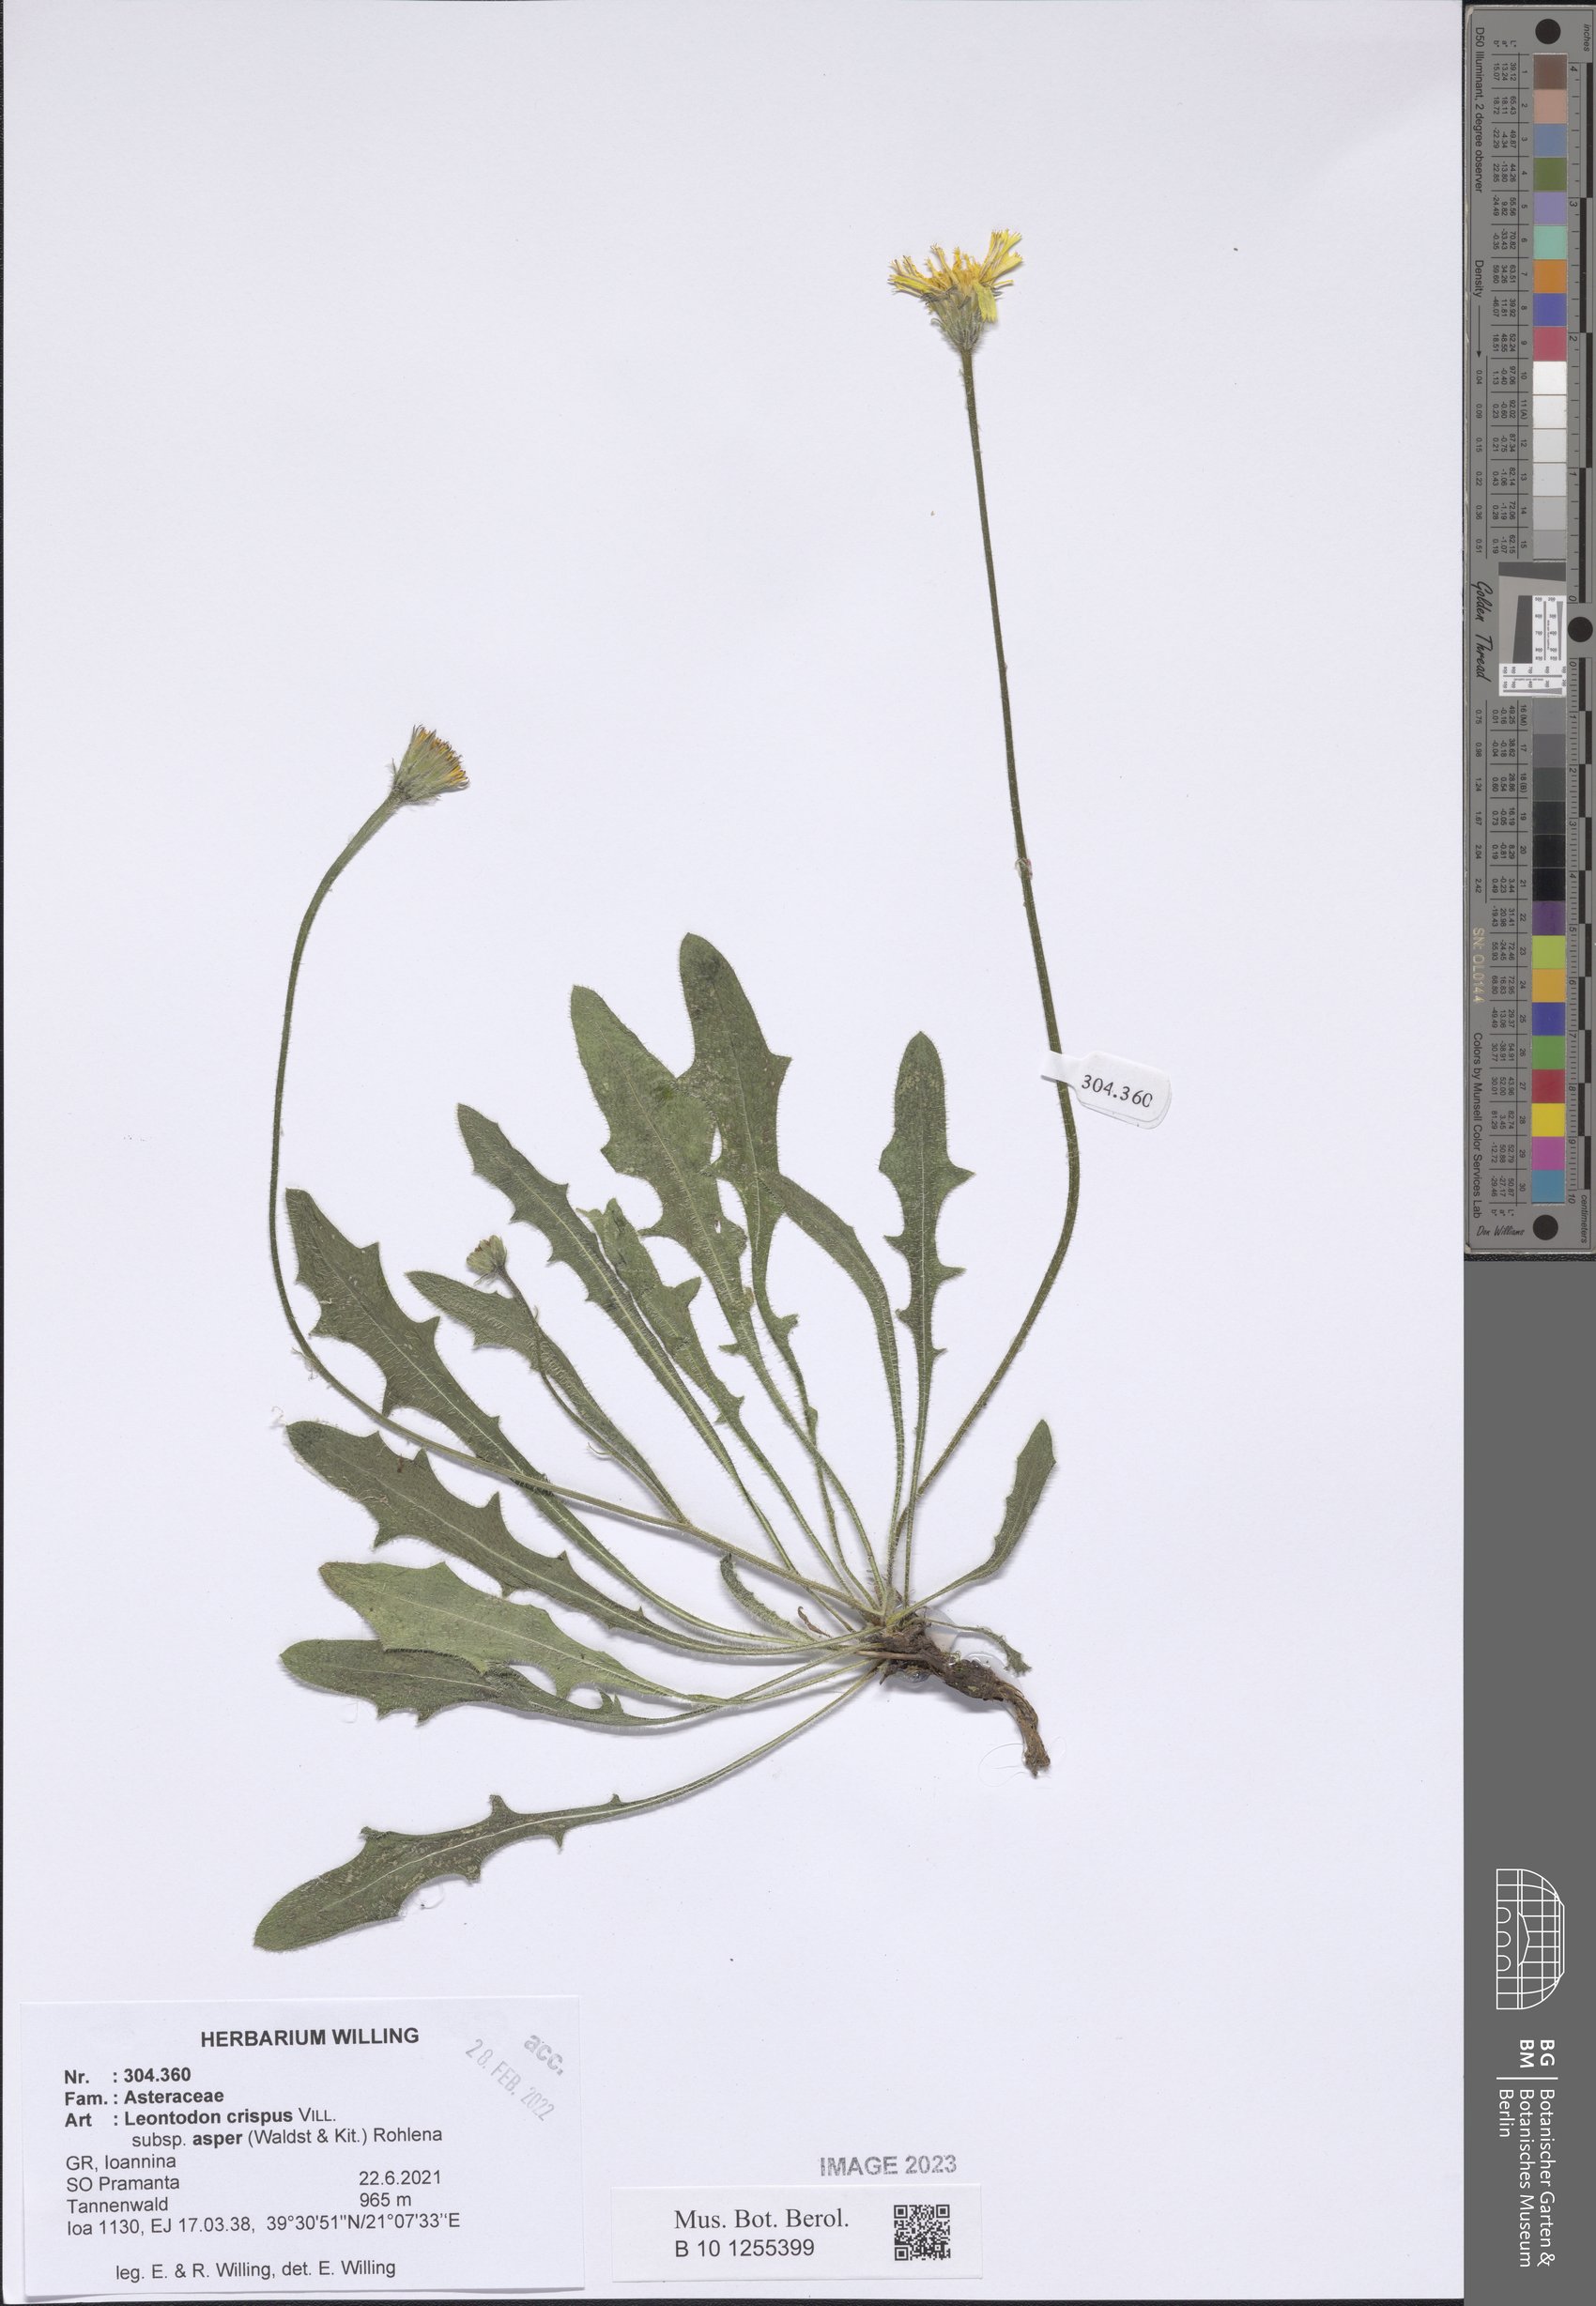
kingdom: Plantae
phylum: Tracheophyta
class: Magnoliopsida
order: Asterales
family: Asteraceae
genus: Leontodon
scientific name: Leontodon biscutellifolius
